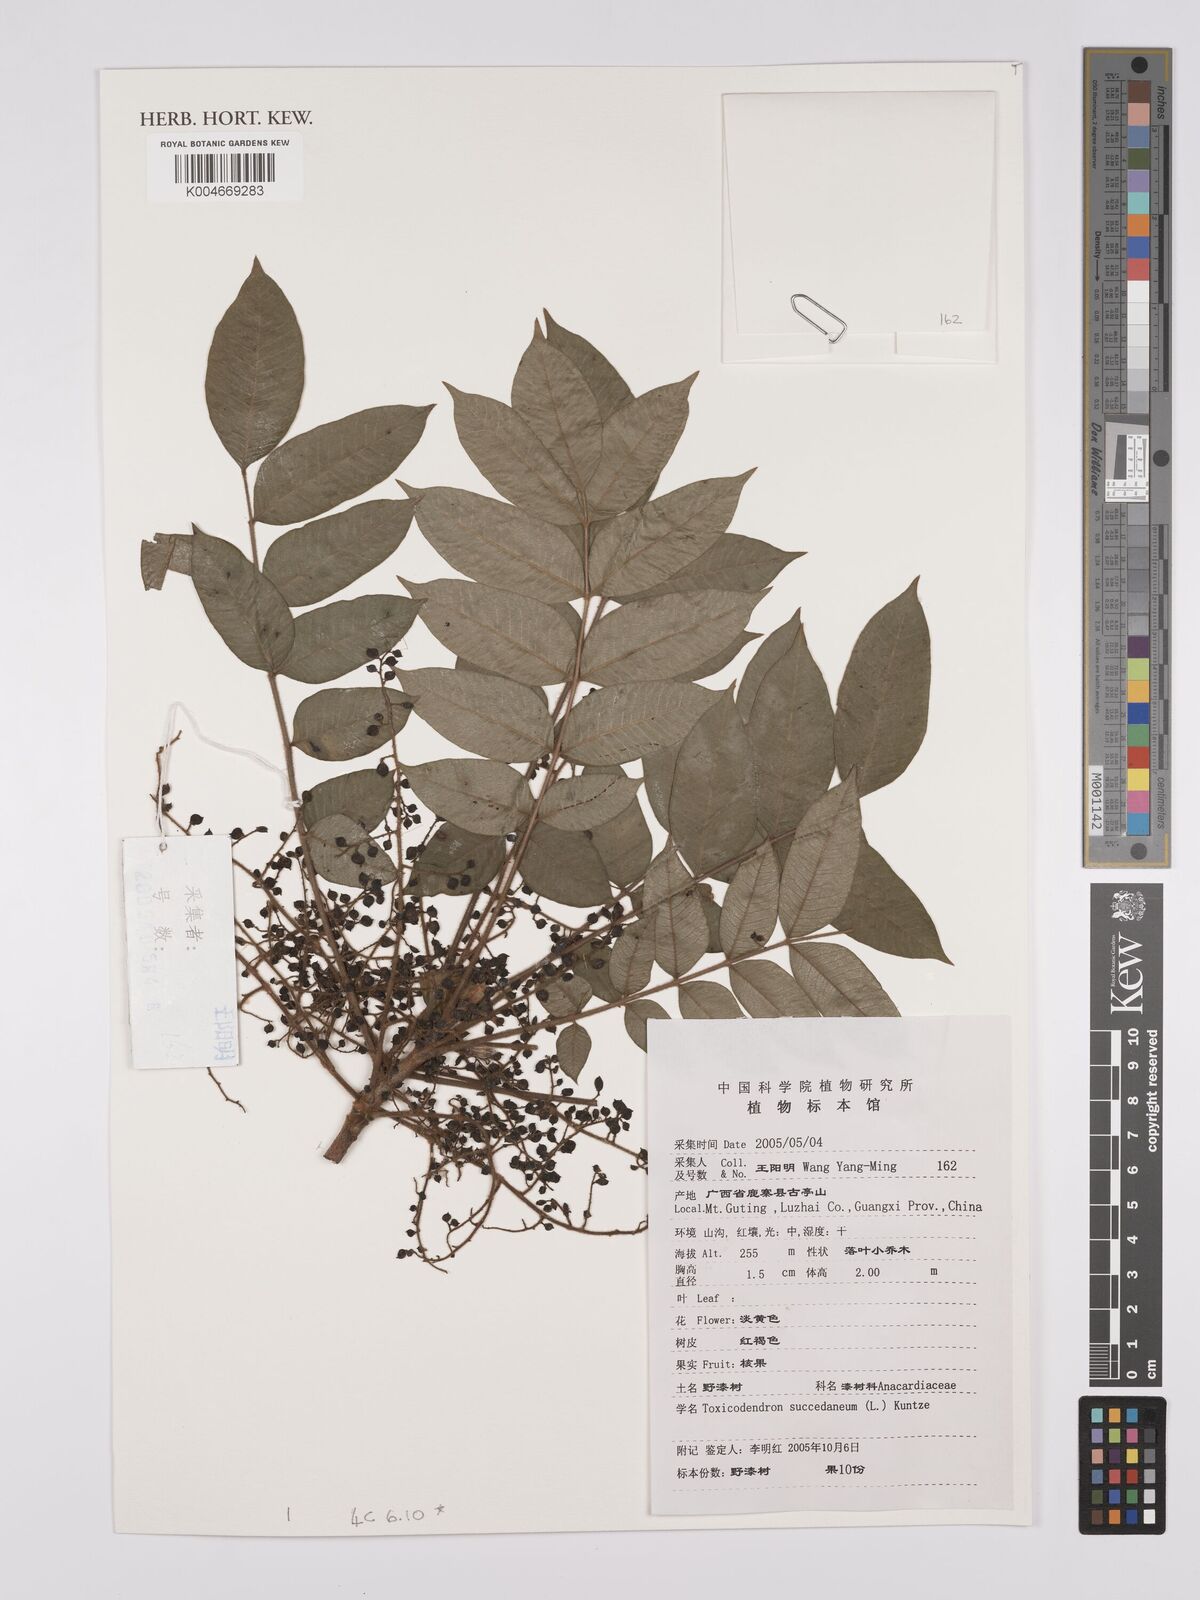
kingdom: Plantae
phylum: Tracheophyta
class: Magnoliopsida
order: Sapindales
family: Anacardiaceae
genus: Toxicodendron
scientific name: Toxicodendron succedaneum
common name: Wax tree
